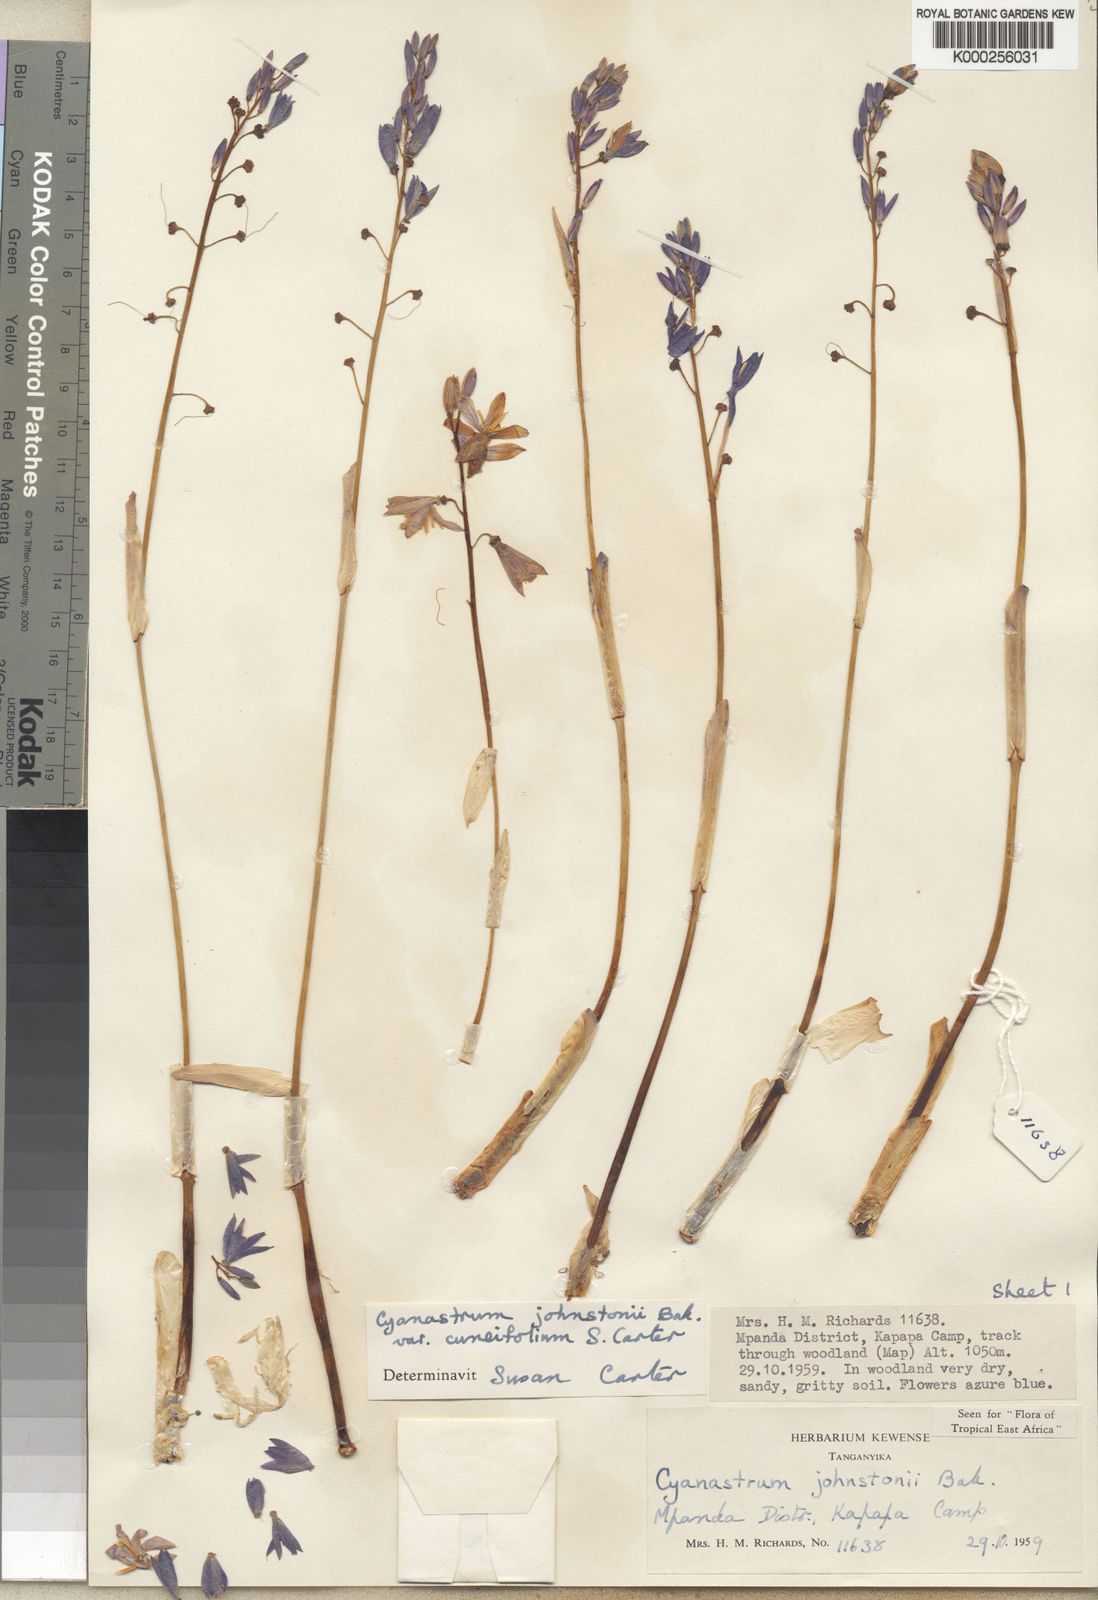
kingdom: Plantae
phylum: Tracheophyta
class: Liliopsida
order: Asparagales
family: Tecophilaeaceae
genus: Cyanastrum
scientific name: Cyanastrum johnstonii
